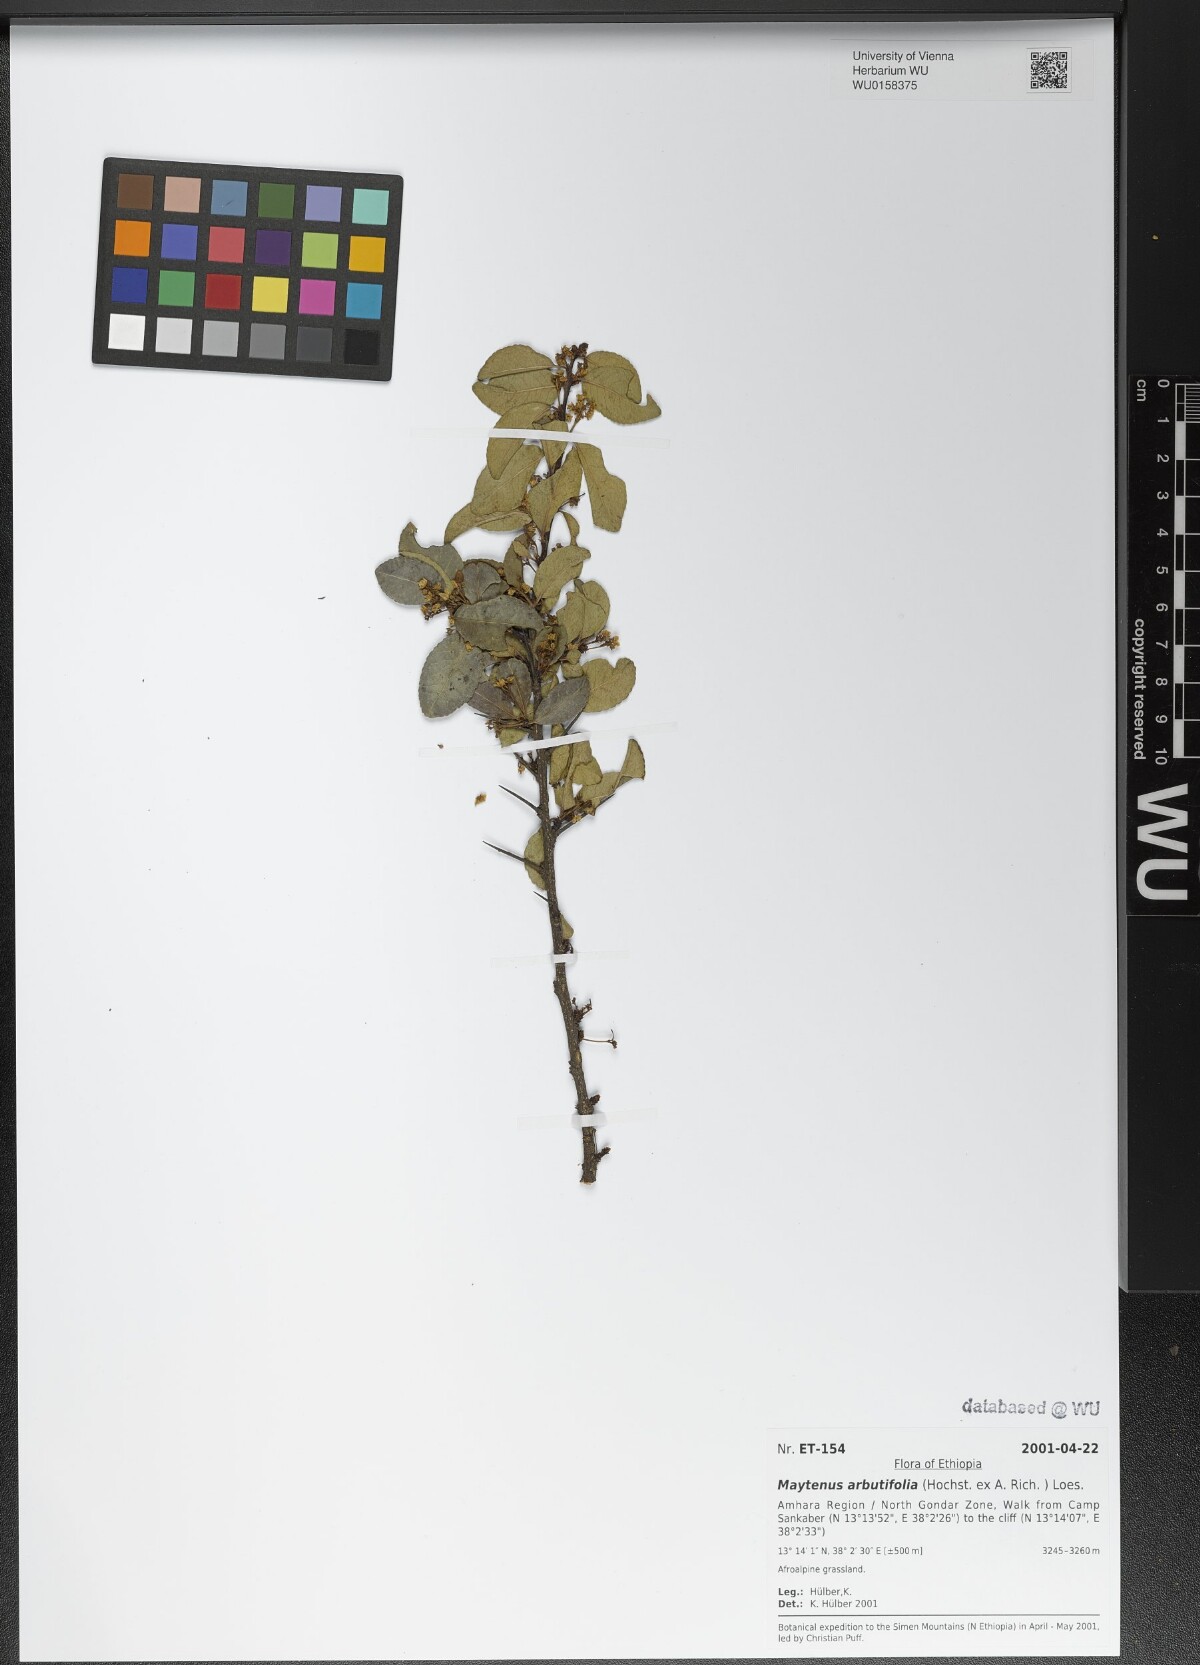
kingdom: Plantae
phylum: Tracheophyta
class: Magnoliopsida
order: Celastrales
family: Celastraceae
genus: Gymnosporia
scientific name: Gymnosporia arbutifolia
